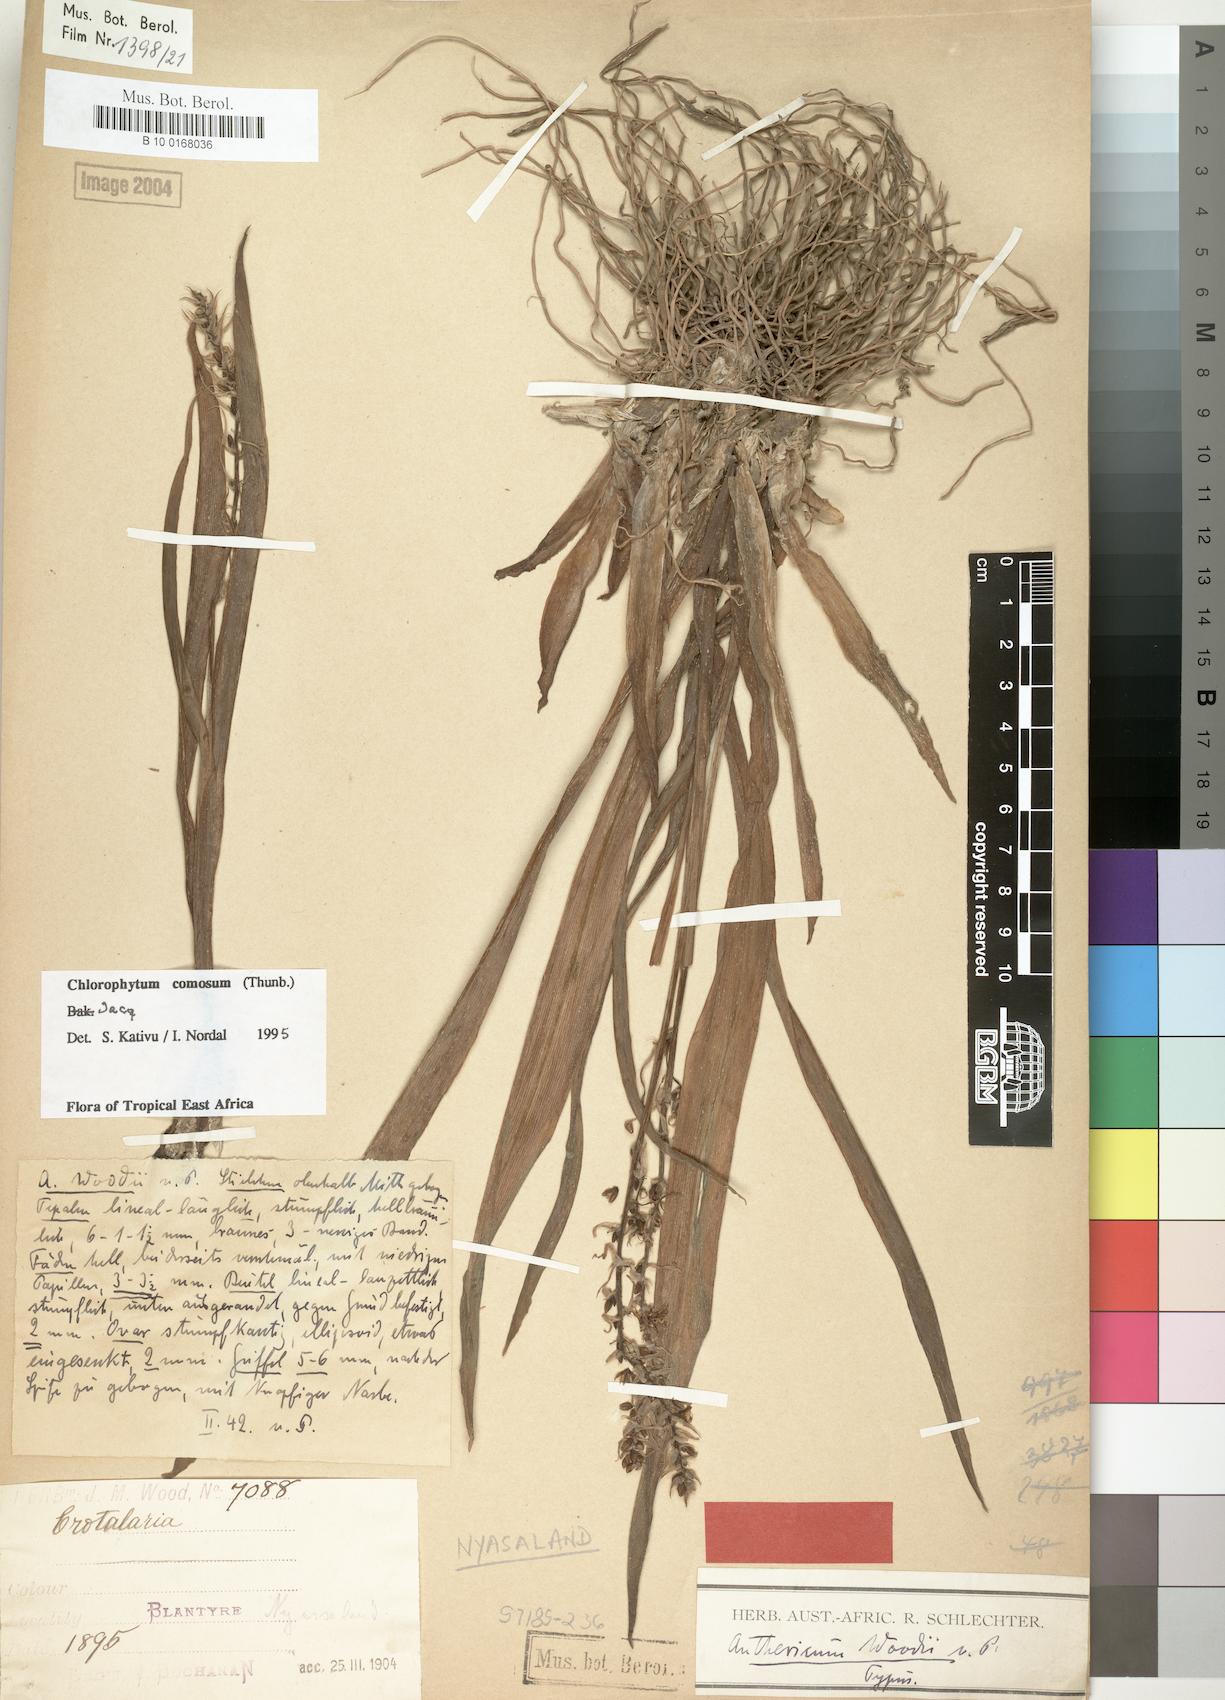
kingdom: Plantae
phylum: Tracheophyta
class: Liliopsida
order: Asparagales
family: Asparagaceae
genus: Chlorophytum
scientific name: Chlorophytum comosum
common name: Spider plant
